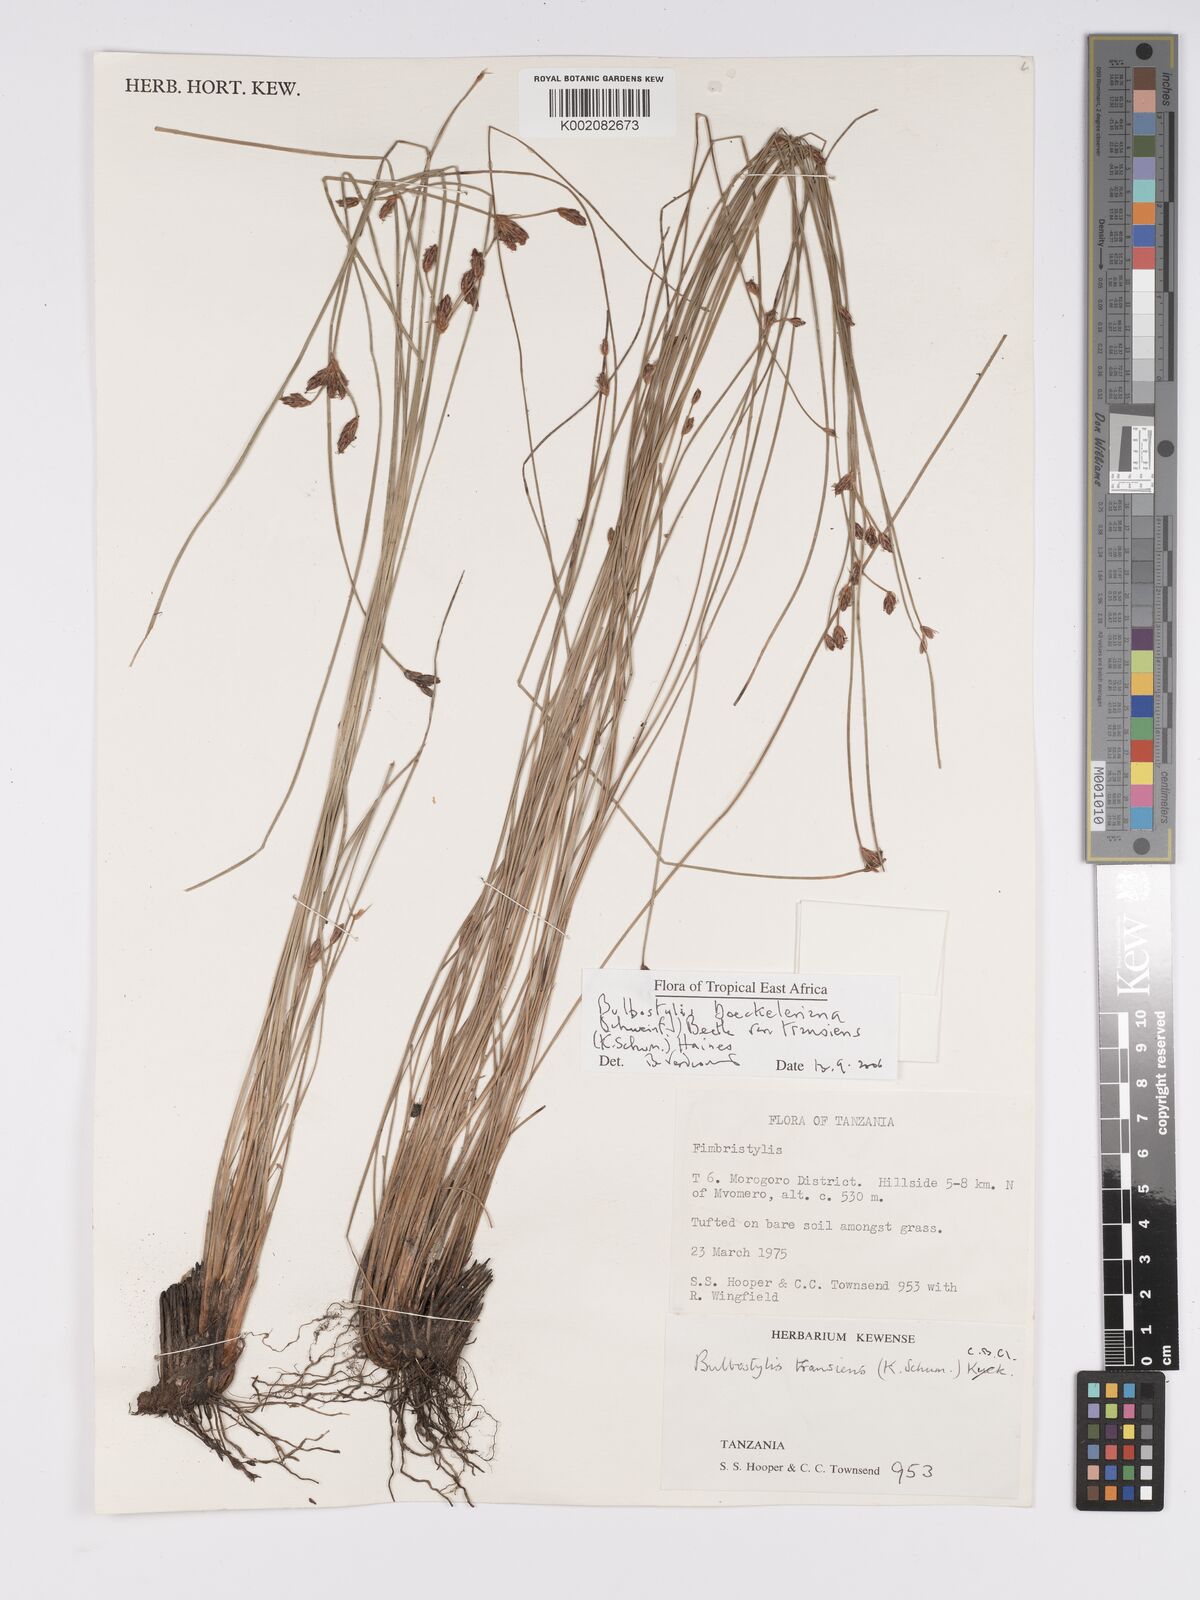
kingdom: Plantae
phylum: Tracheophyta
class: Liliopsida
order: Poales
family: Cyperaceae
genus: Bulbostylis
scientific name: Bulbostylis boeckeleriana
